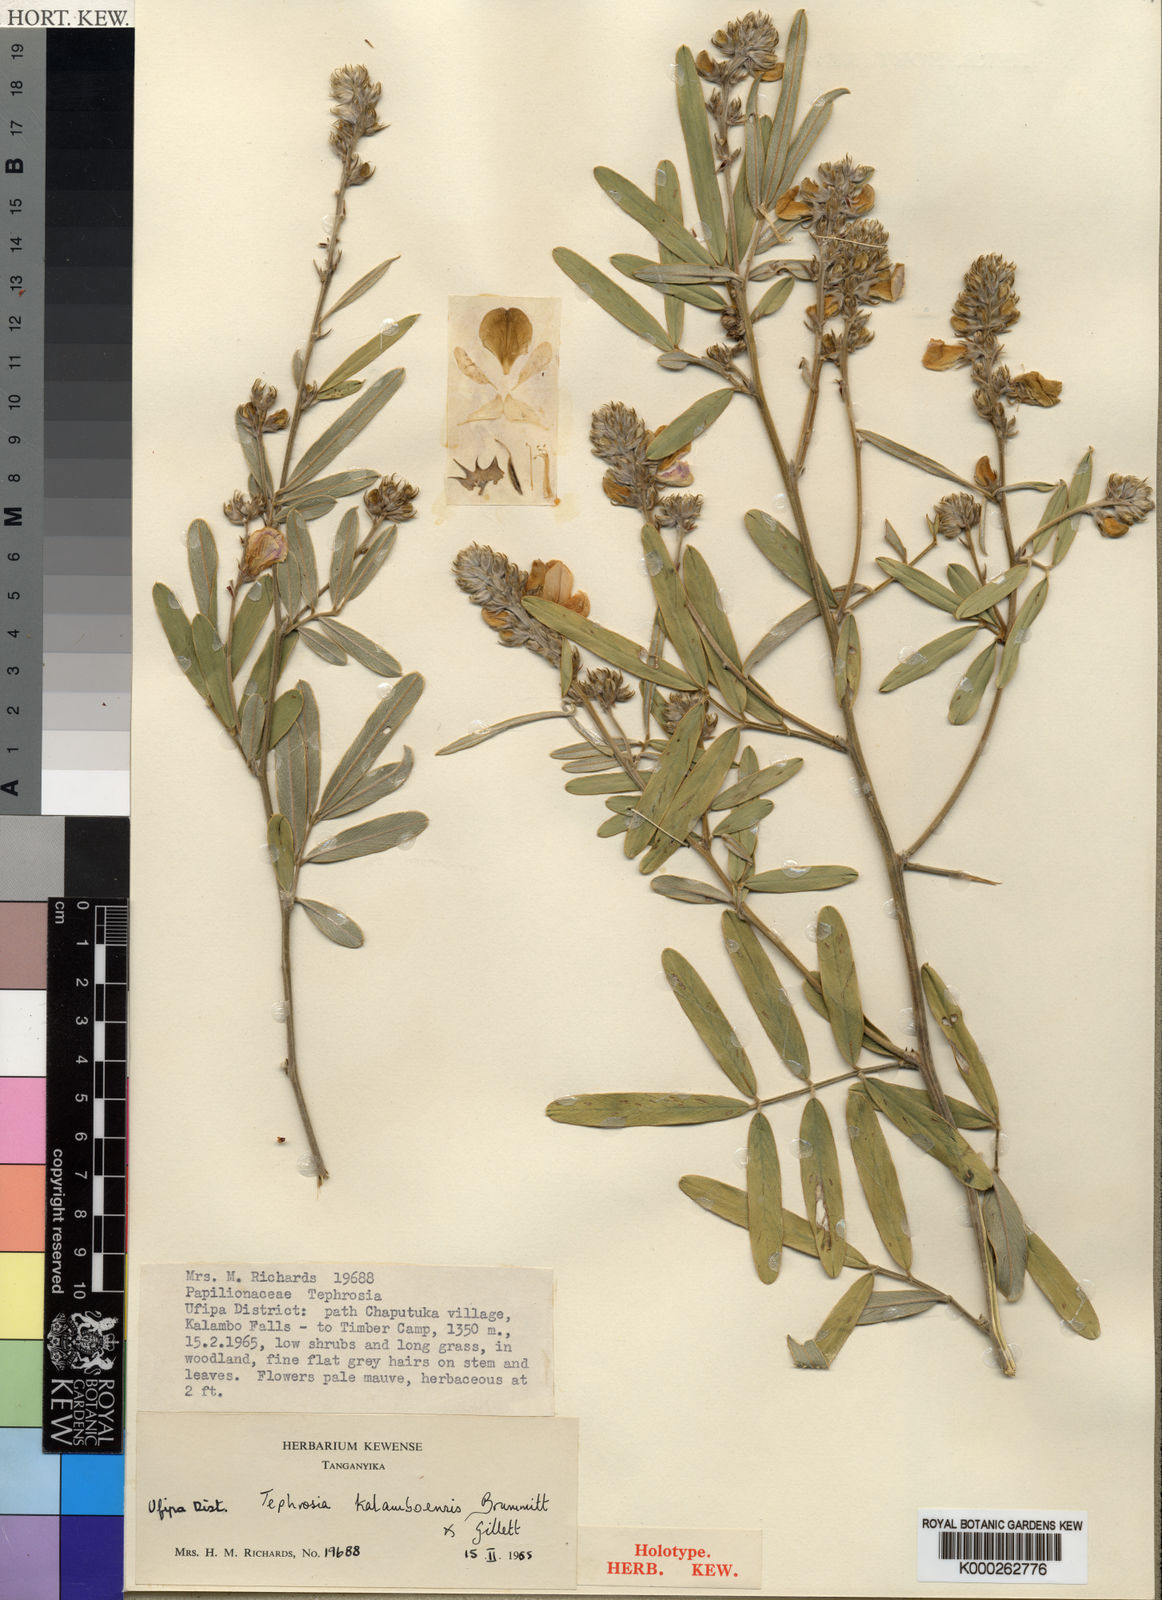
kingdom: Plantae
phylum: Tracheophyta
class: Magnoliopsida
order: Fabales
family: Fabaceae
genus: Tephrosia
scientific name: Tephrosia kalamboensis
